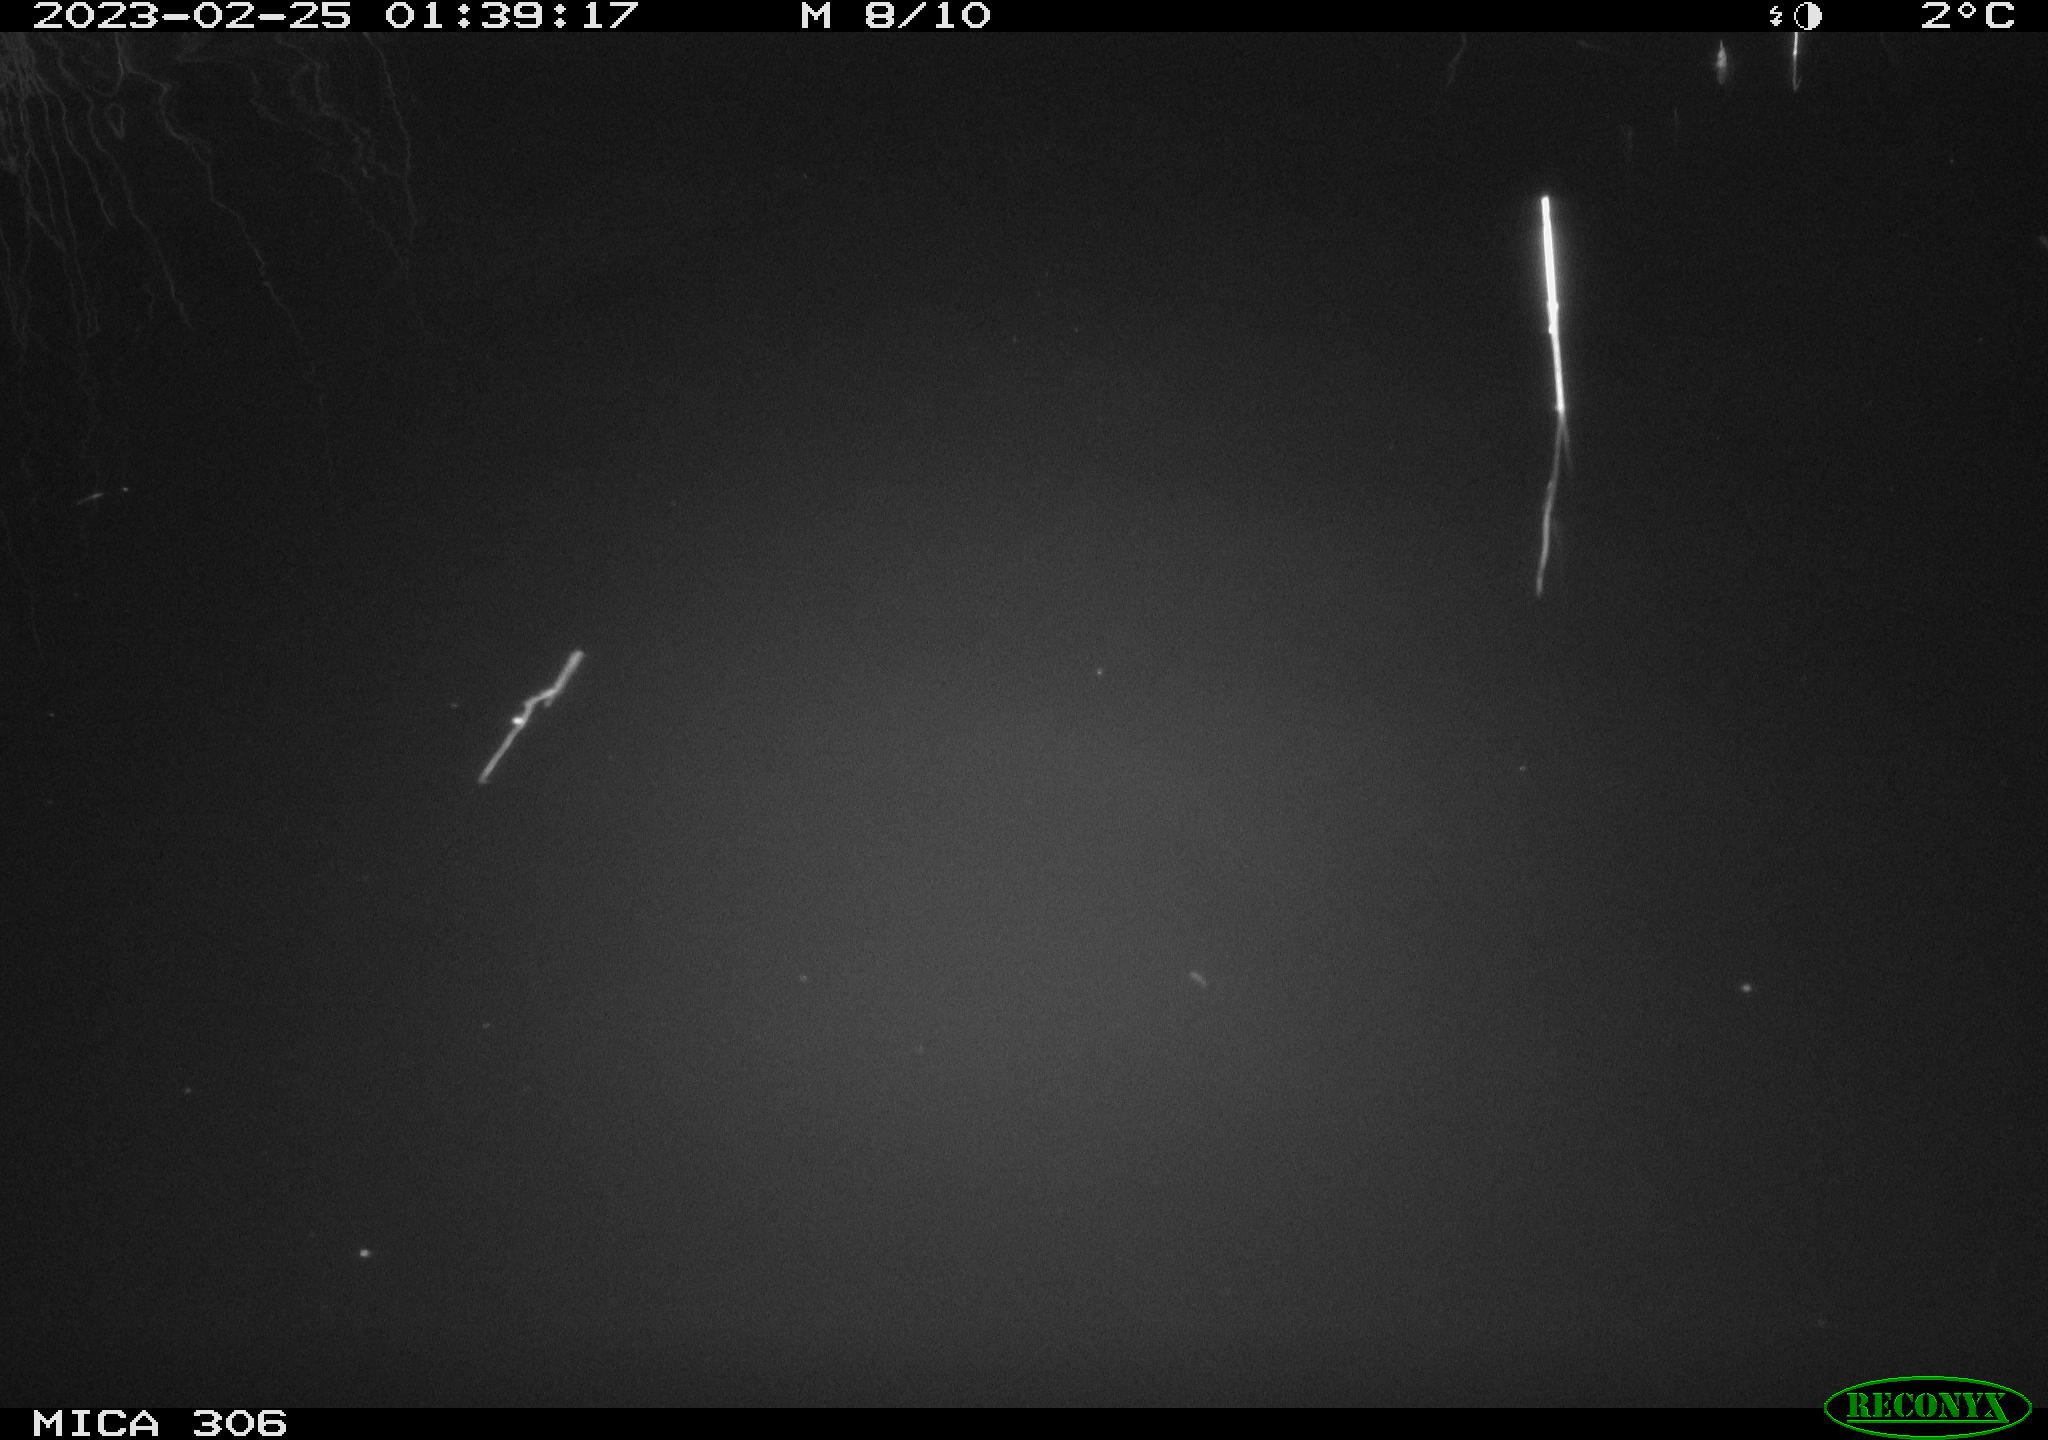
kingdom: Animalia
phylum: Chordata
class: Mammalia
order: Rodentia
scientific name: Rodentia
